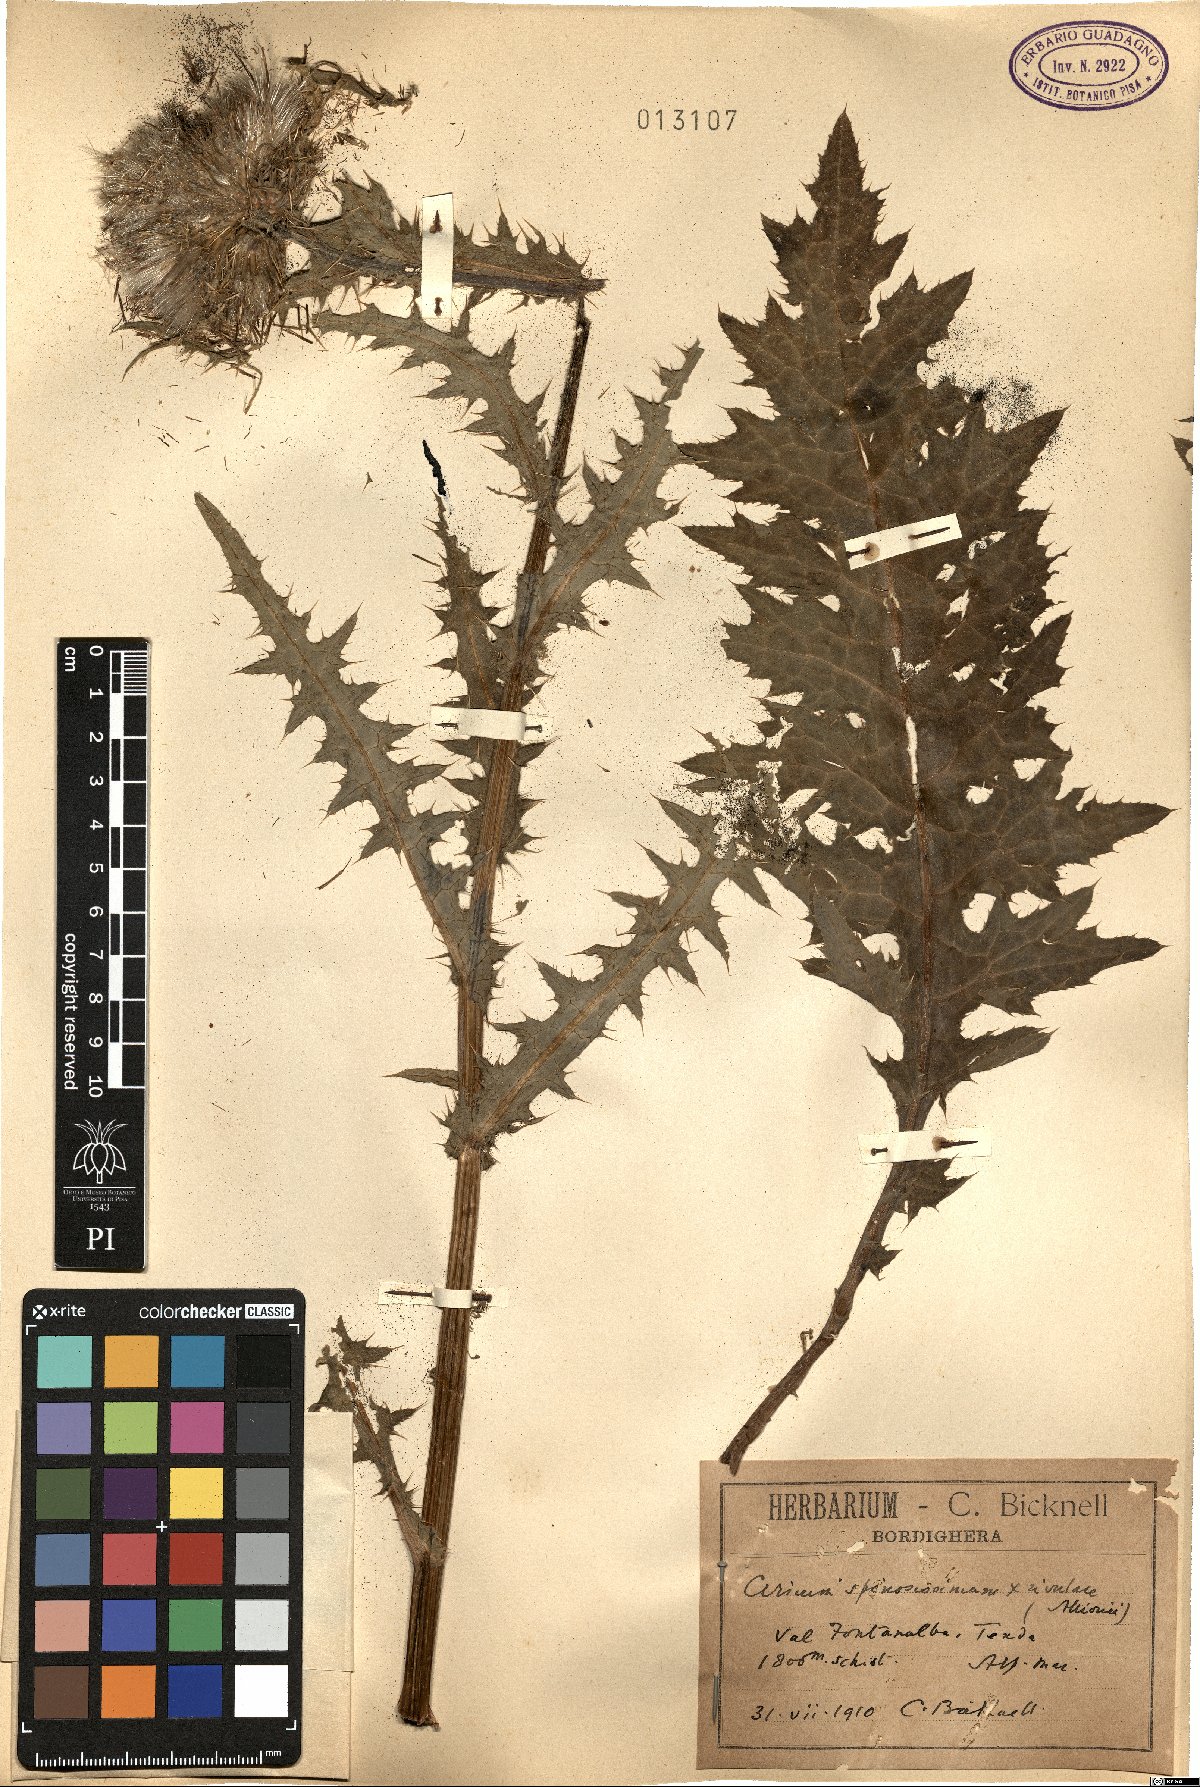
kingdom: Plantae
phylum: Tracheophyta
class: Magnoliopsida
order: Asterales
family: Asteraceae
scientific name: Asteraceae
